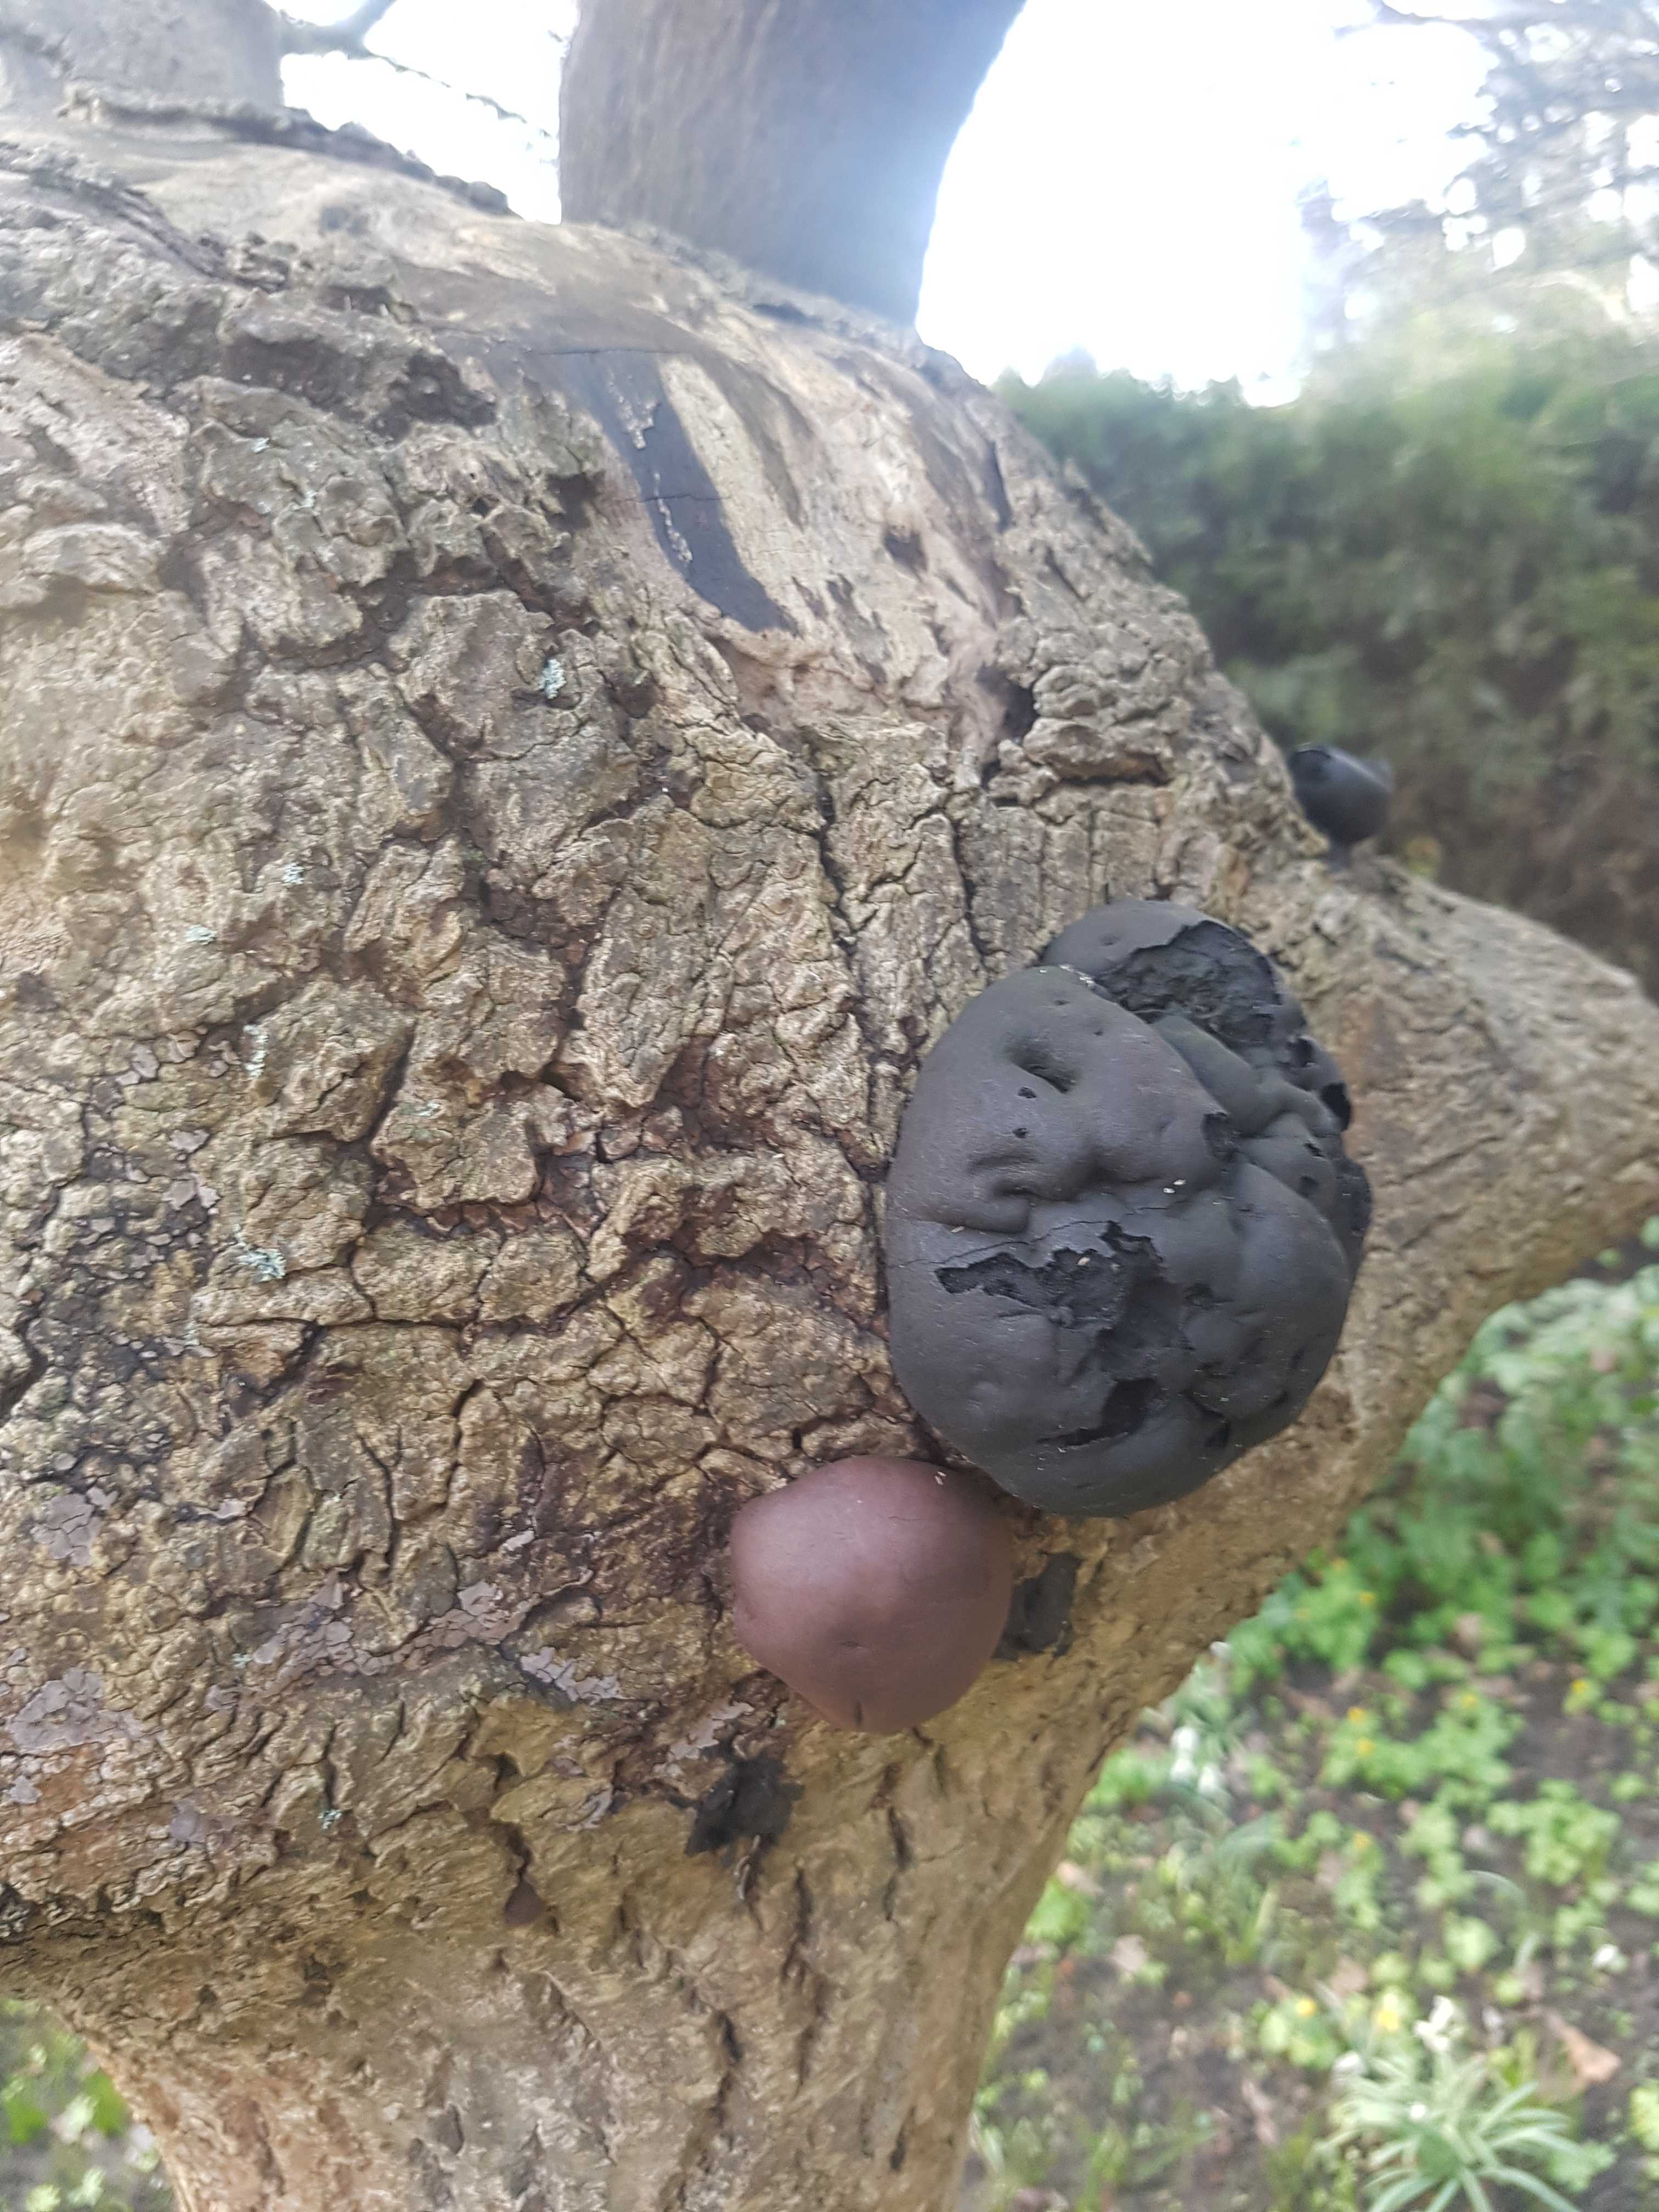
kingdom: Fungi
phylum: Ascomycota
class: Sordariomycetes
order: Xylariales
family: Hypoxylaceae
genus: Daldinia
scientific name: Daldinia concentrica
